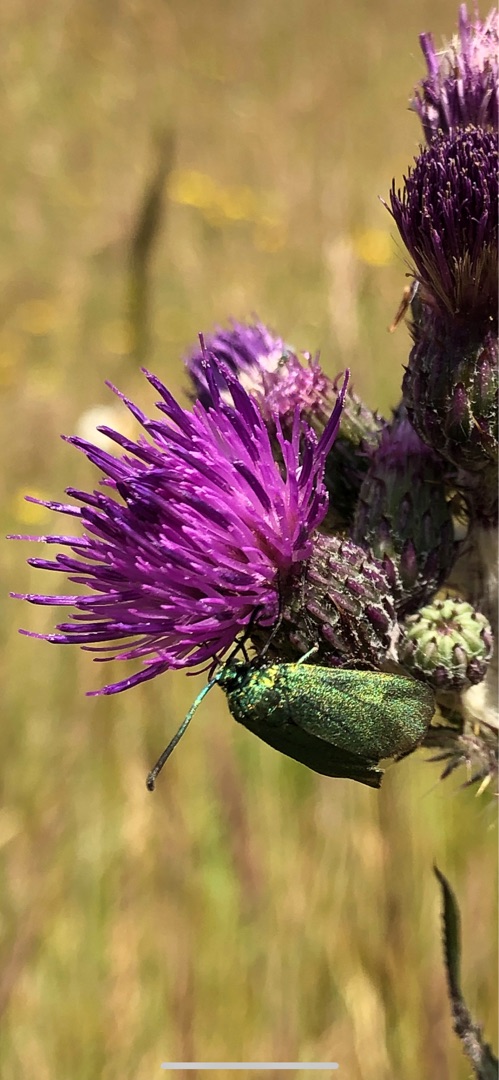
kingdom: Animalia
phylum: Arthropoda
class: Insecta
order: Lepidoptera
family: Zygaenidae
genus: Adscita
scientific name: Adscita statices
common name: Metalvinge
